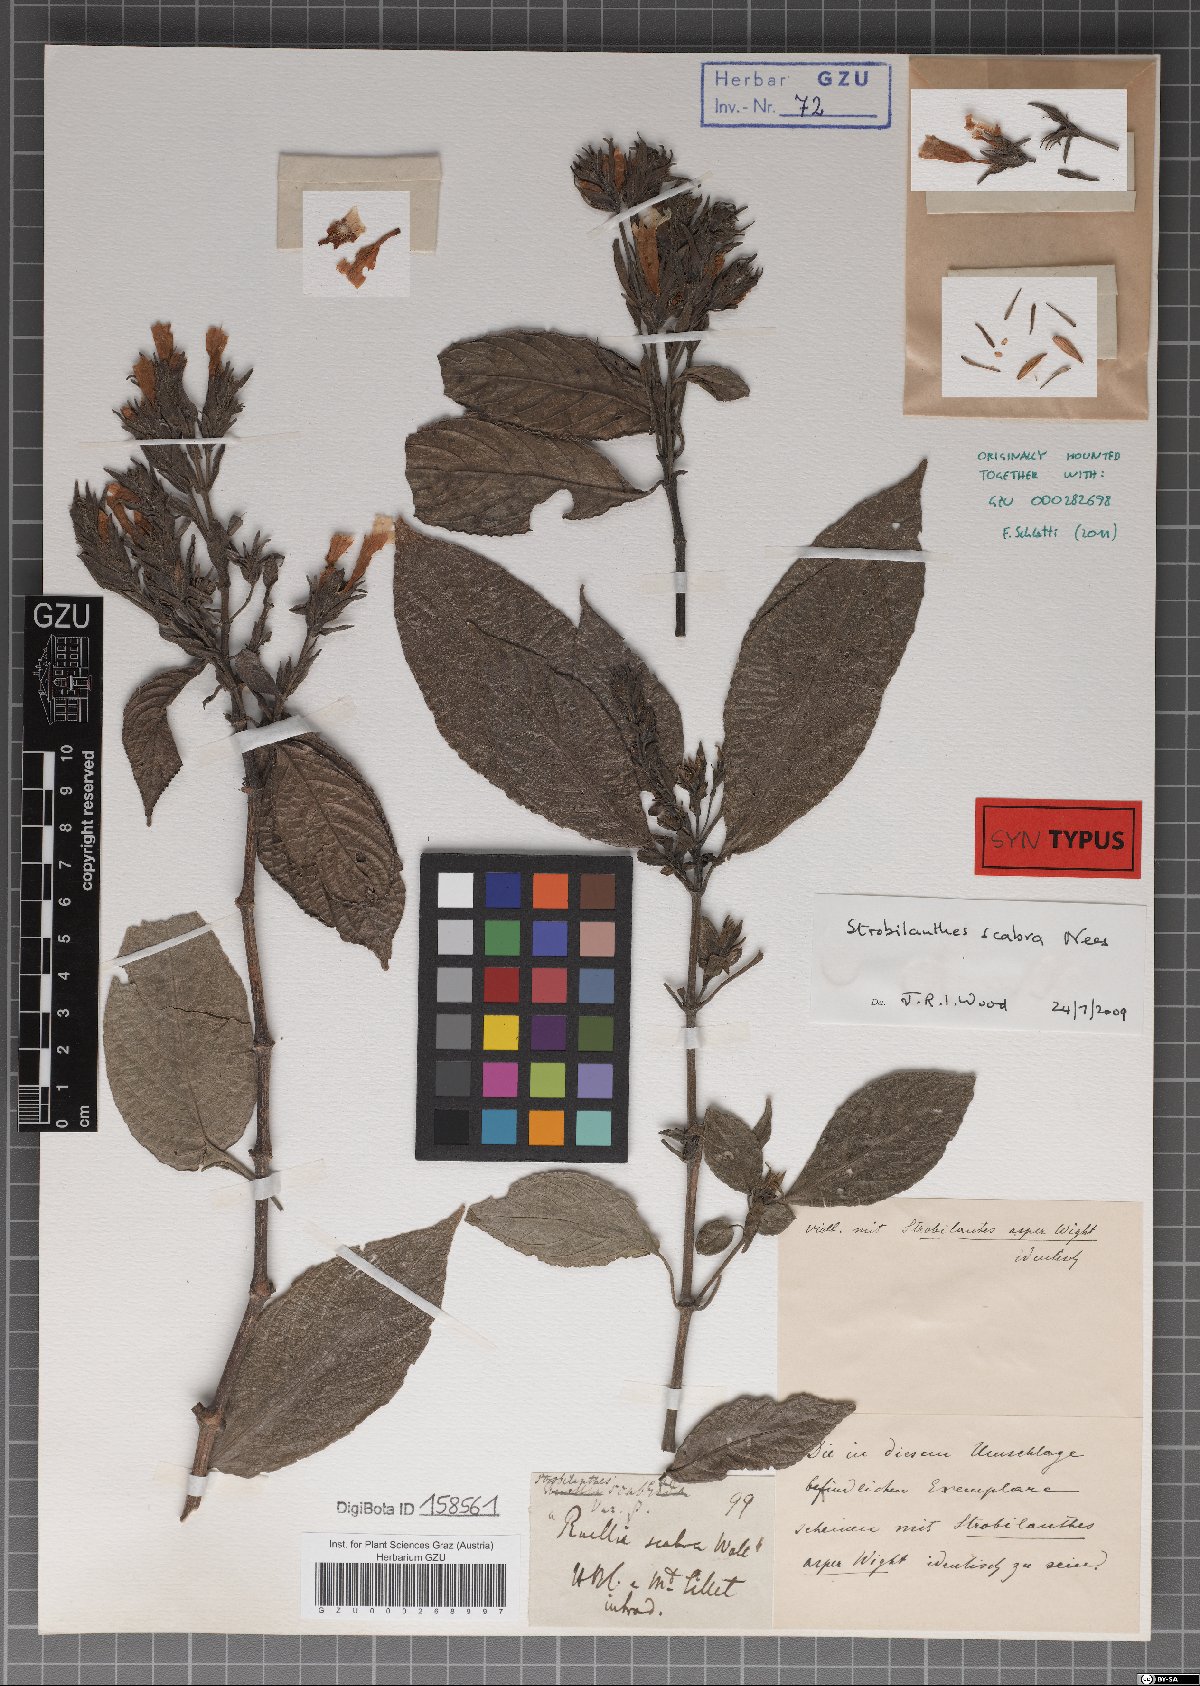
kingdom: Plantae
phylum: Tracheophyta
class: Magnoliopsida
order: Lamiales
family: Acanthaceae
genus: Strobilanthes
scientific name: Strobilanthes scaber
